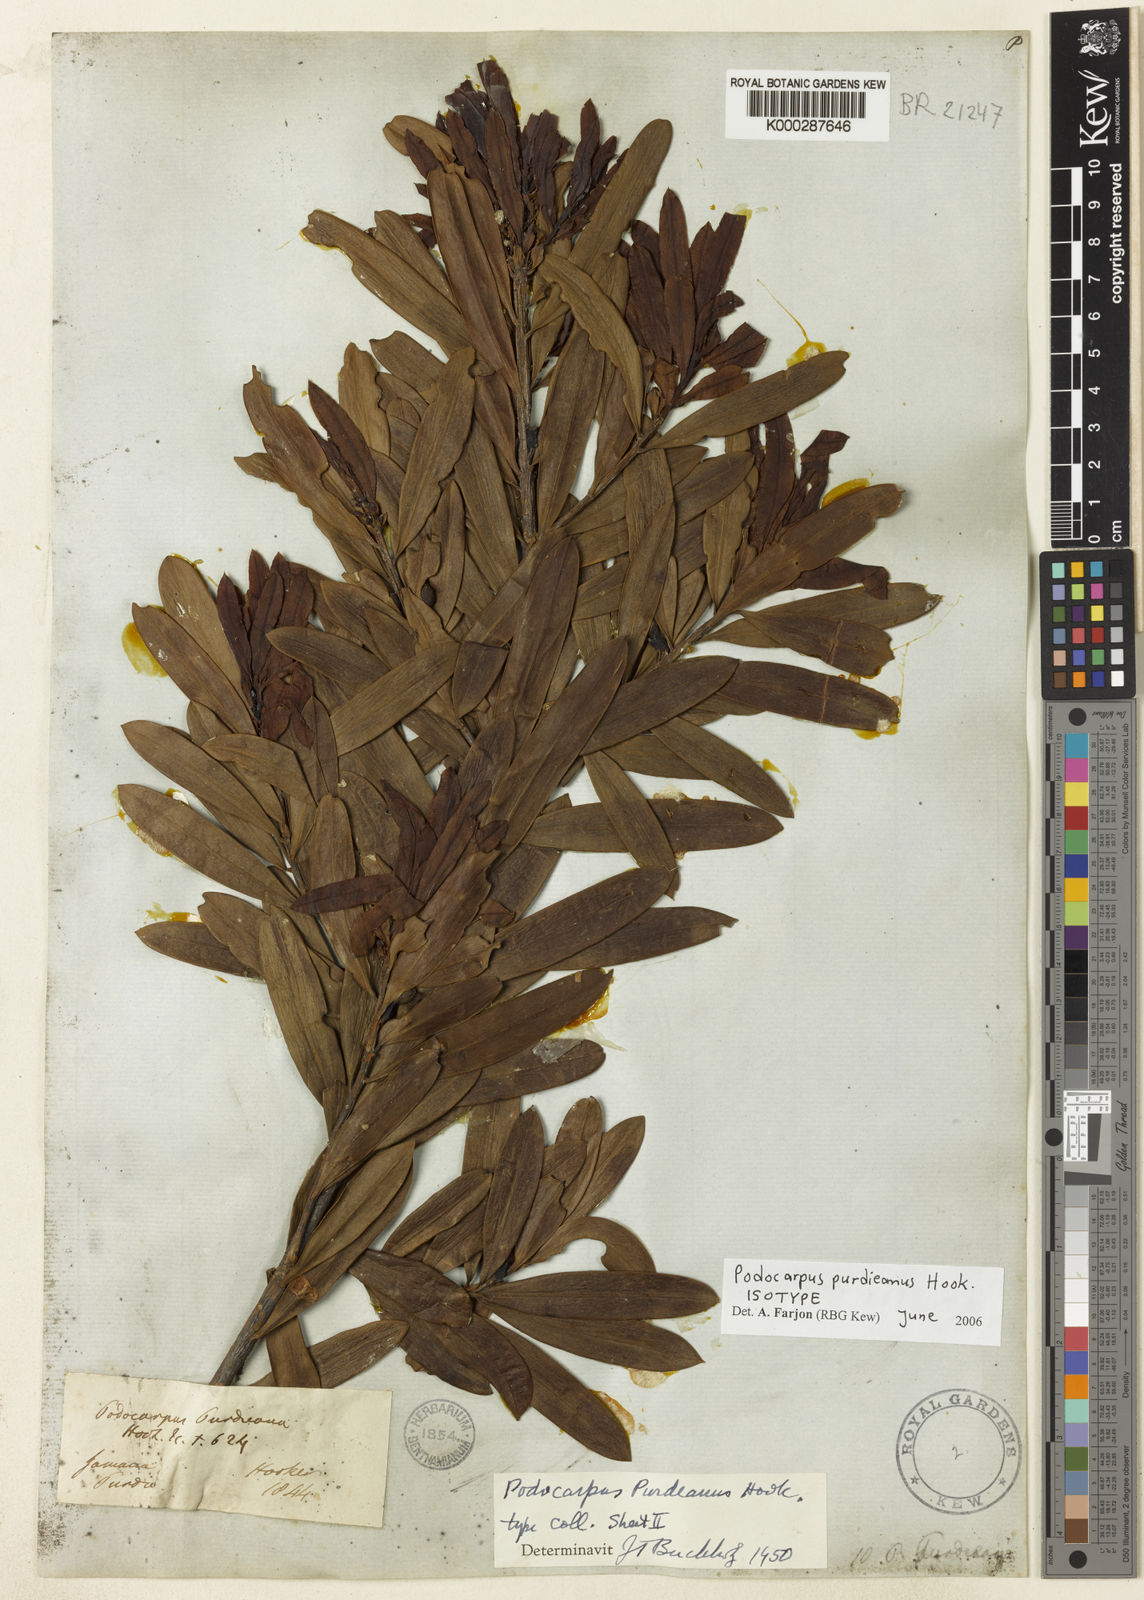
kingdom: Plantae
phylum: Tracheophyta
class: Pinopsida
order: Pinales
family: Podocarpaceae
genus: Podocarpus
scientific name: Podocarpus purdieanus
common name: St. ann yacca
